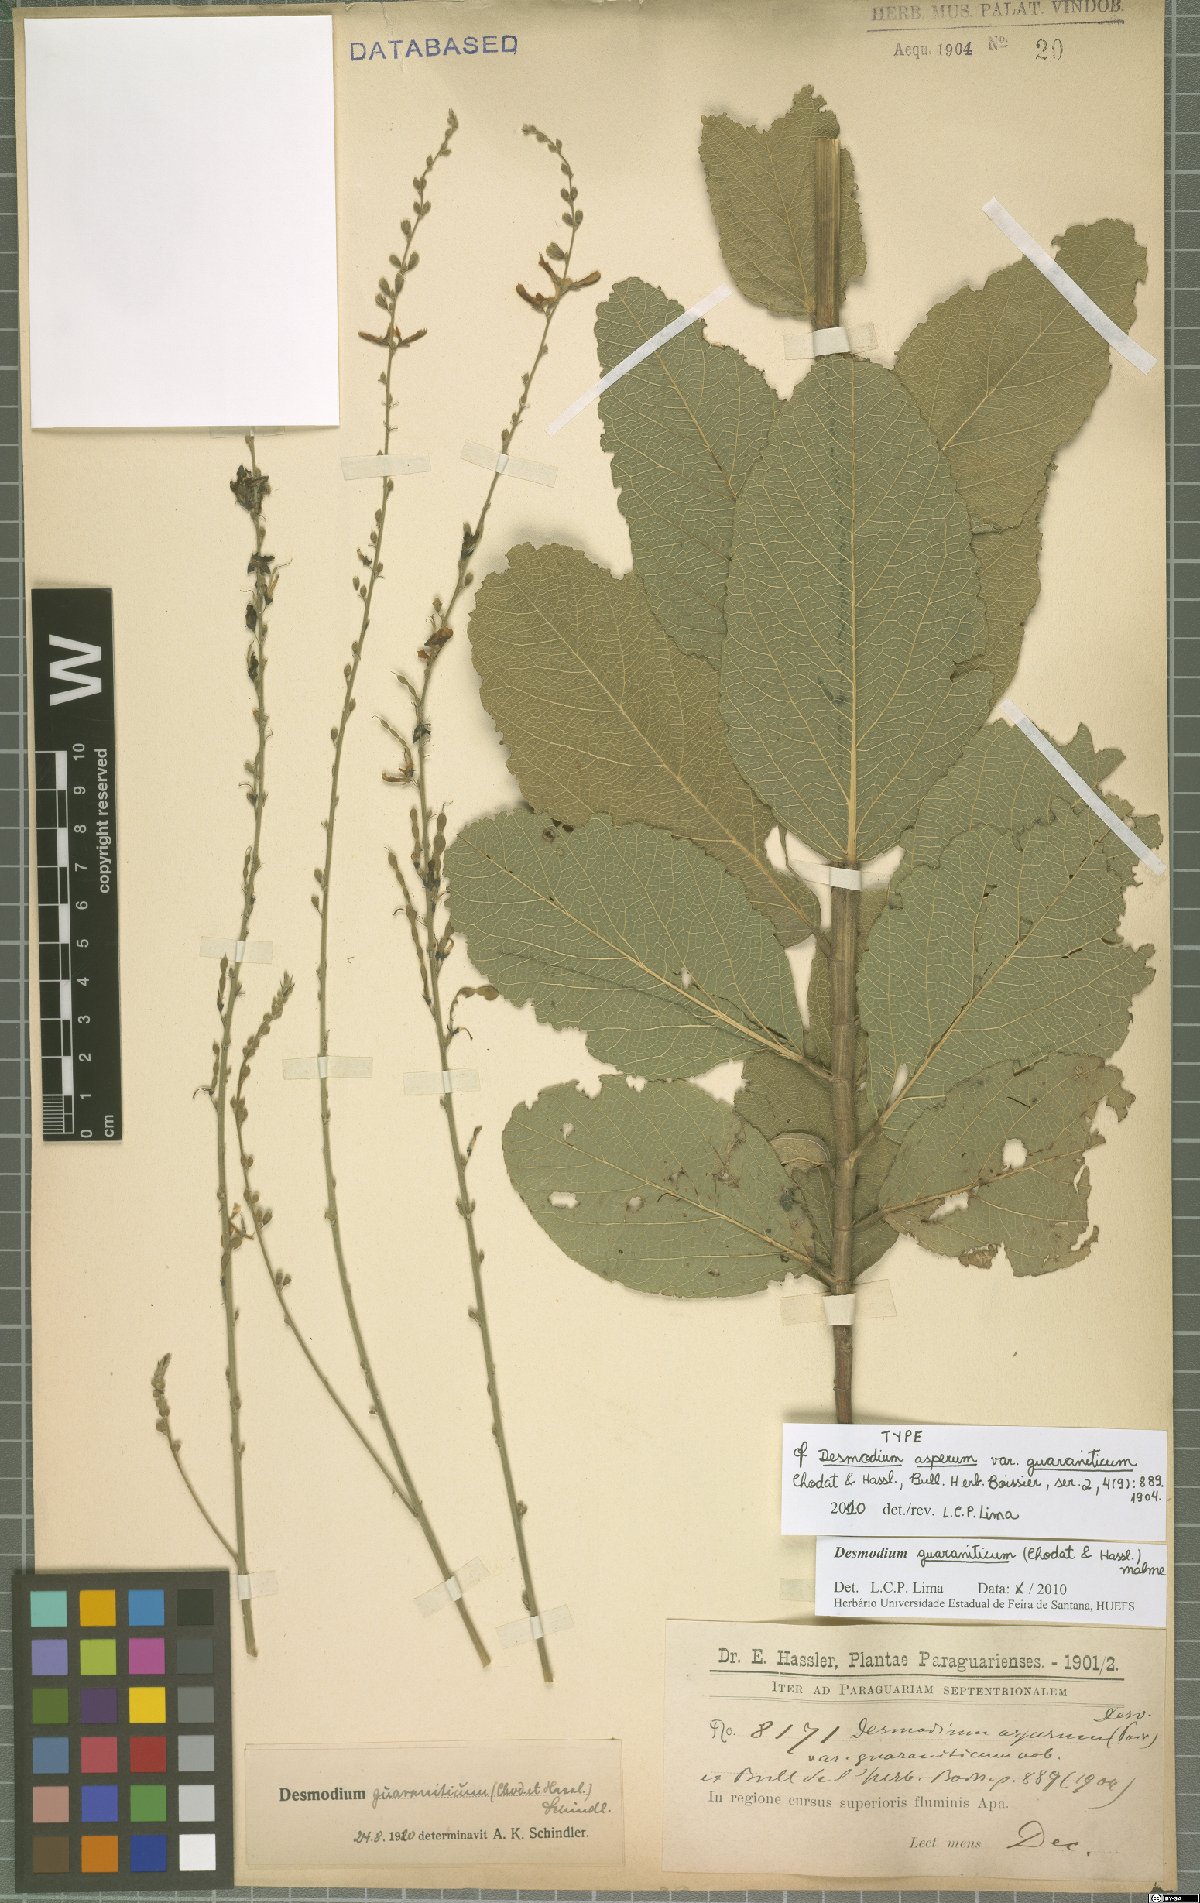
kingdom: Plantae
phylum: Tracheophyta
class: Magnoliopsida
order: Fabales
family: Fabaceae
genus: Desmodium
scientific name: Desmodium guaraniticum
